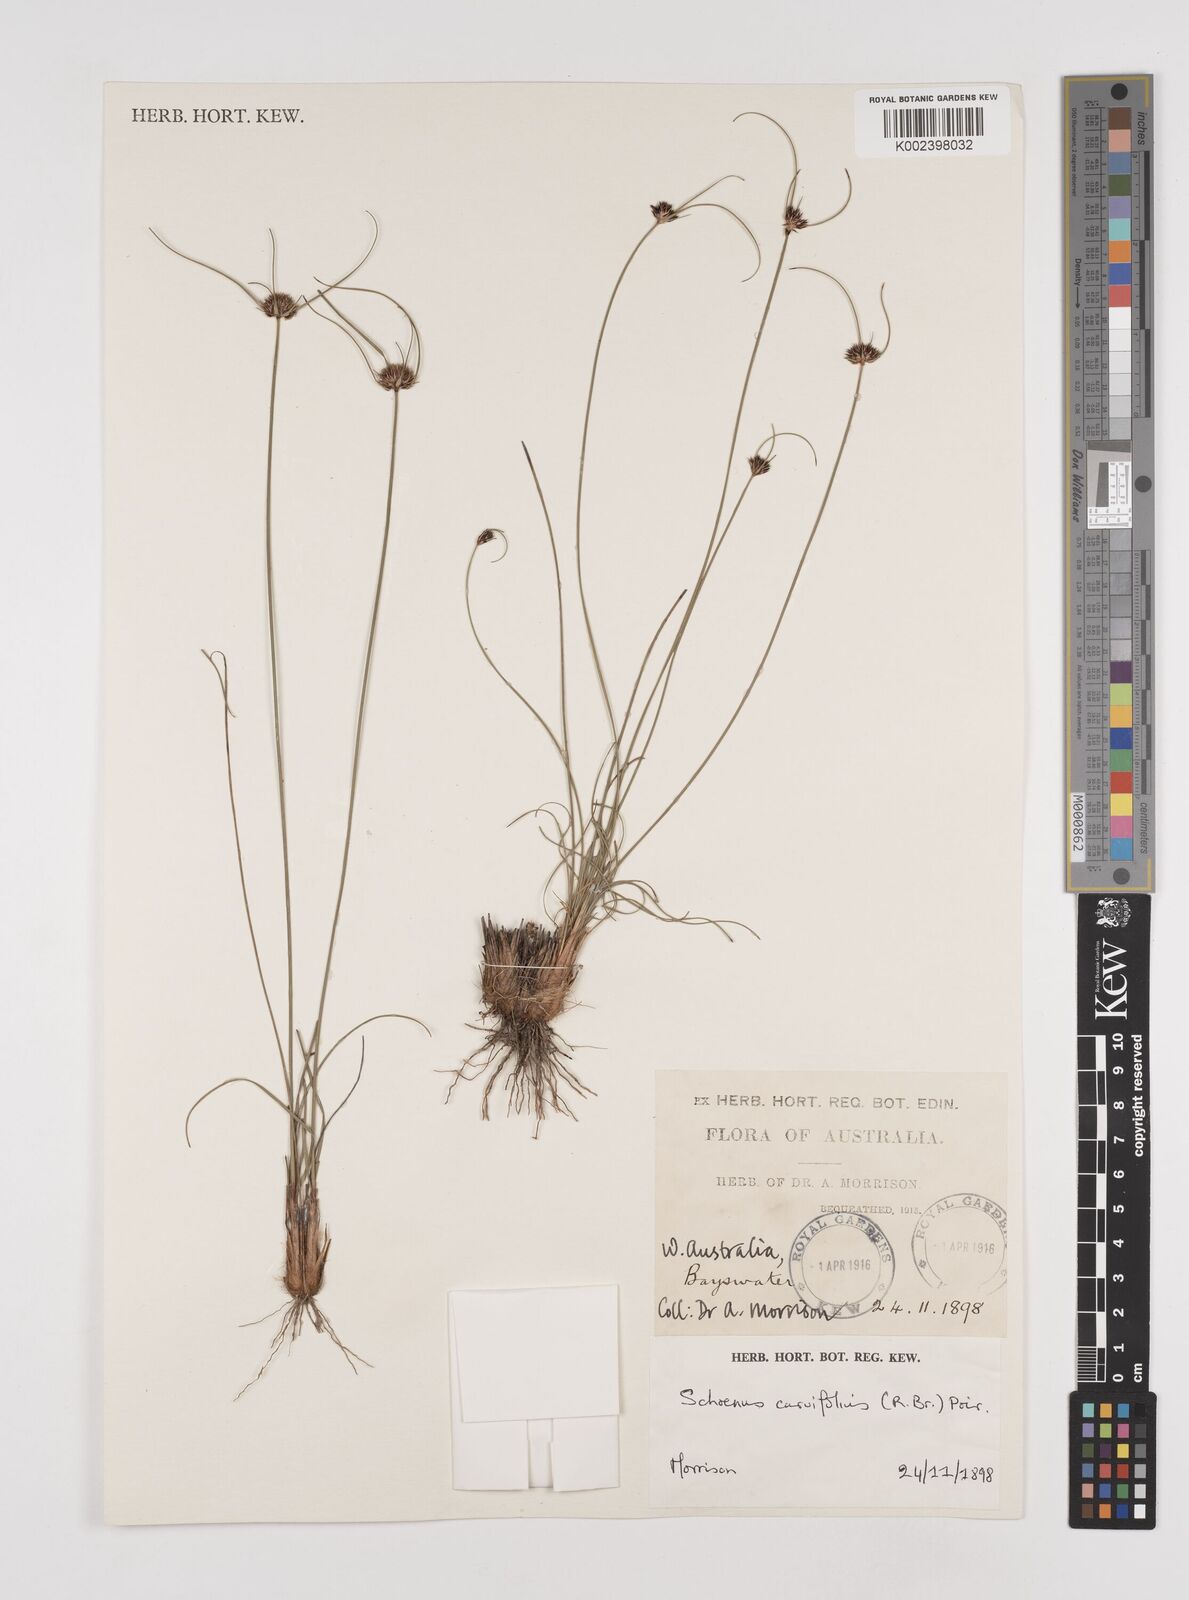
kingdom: Plantae
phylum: Tracheophyta
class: Liliopsida
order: Poales
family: Cyperaceae
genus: Schoenus
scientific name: Schoenus
